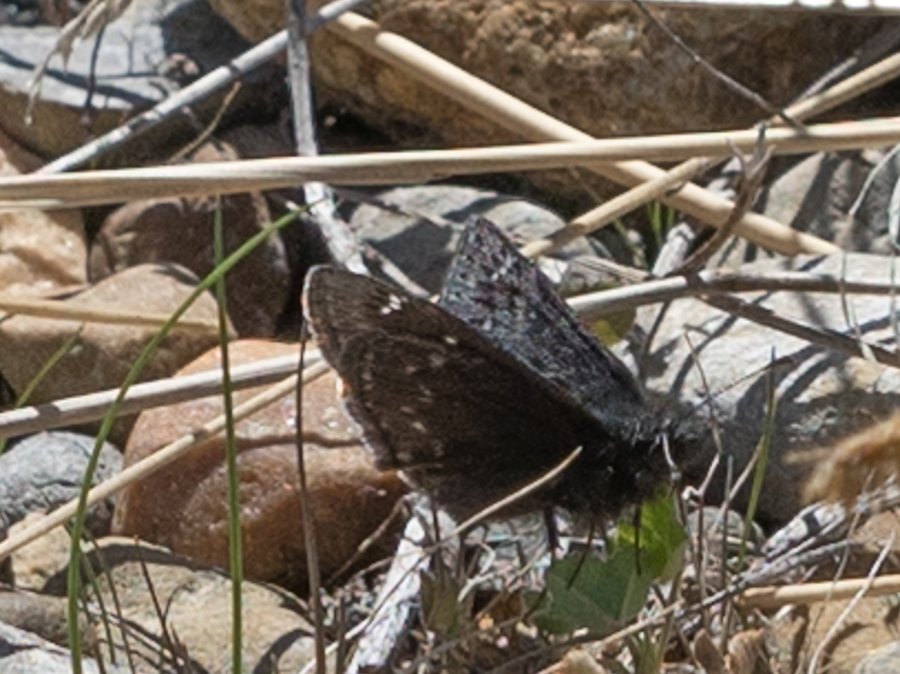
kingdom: Animalia
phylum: Arthropoda
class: Insecta
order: Lepidoptera
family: Hesperiidae
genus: Gesta
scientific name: Gesta
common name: Persius Duskywing
